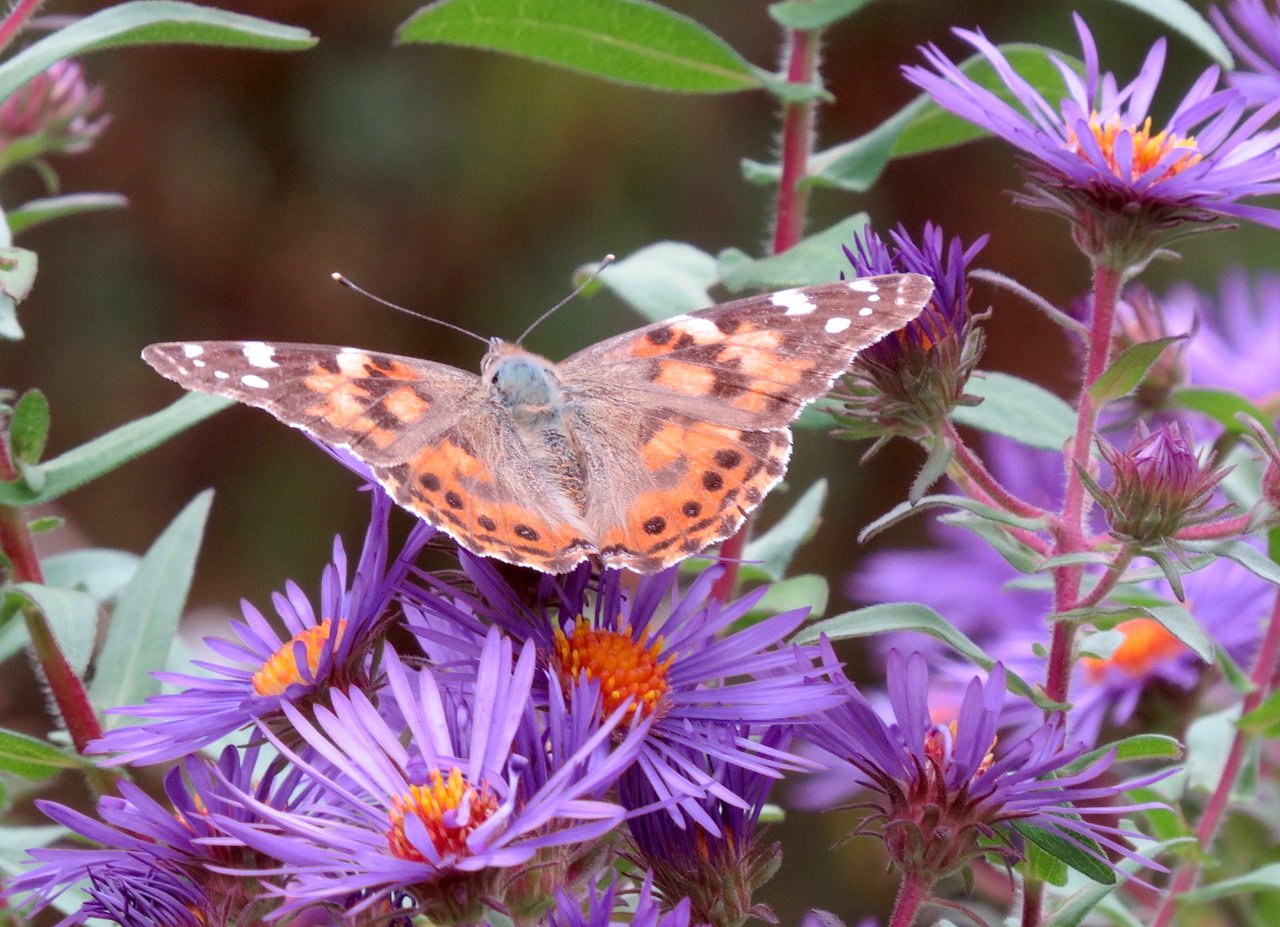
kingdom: Animalia
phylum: Arthropoda
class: Insecta
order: Lepidoptera
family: Nymphalidae
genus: Vanessa
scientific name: Vanessa cardui
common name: Painted Lady
